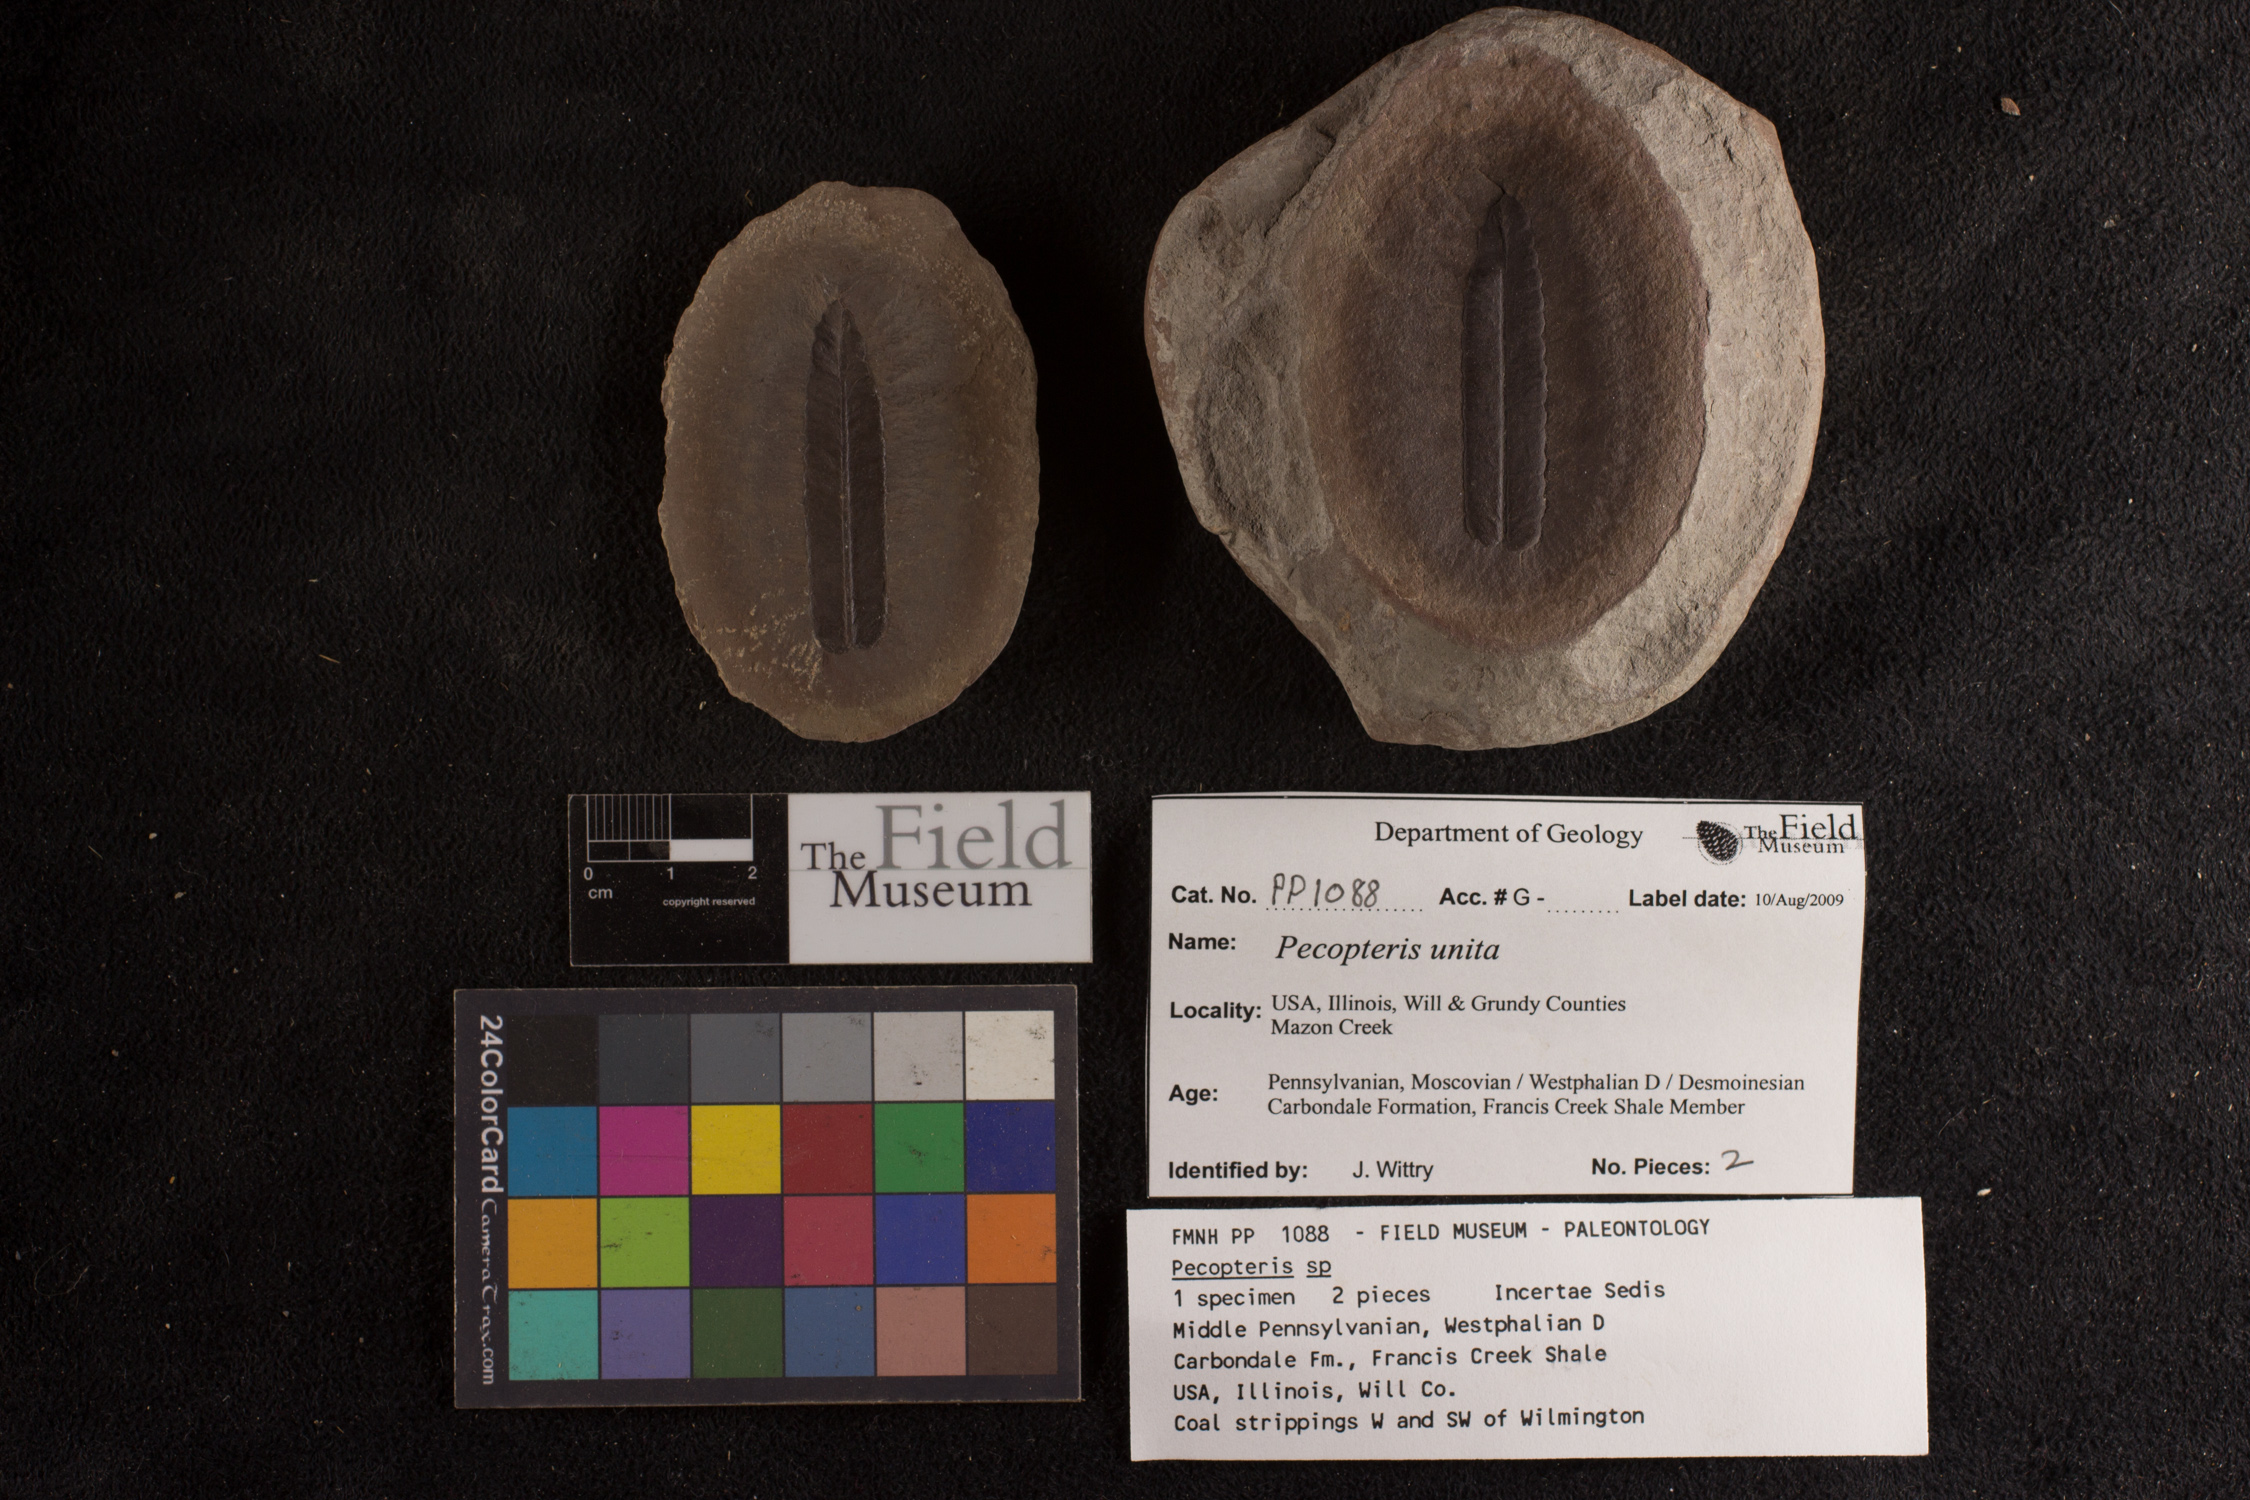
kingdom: Plantae
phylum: Tracheophyta
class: Polypodiopsida
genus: Diplazites
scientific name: Diplazites
